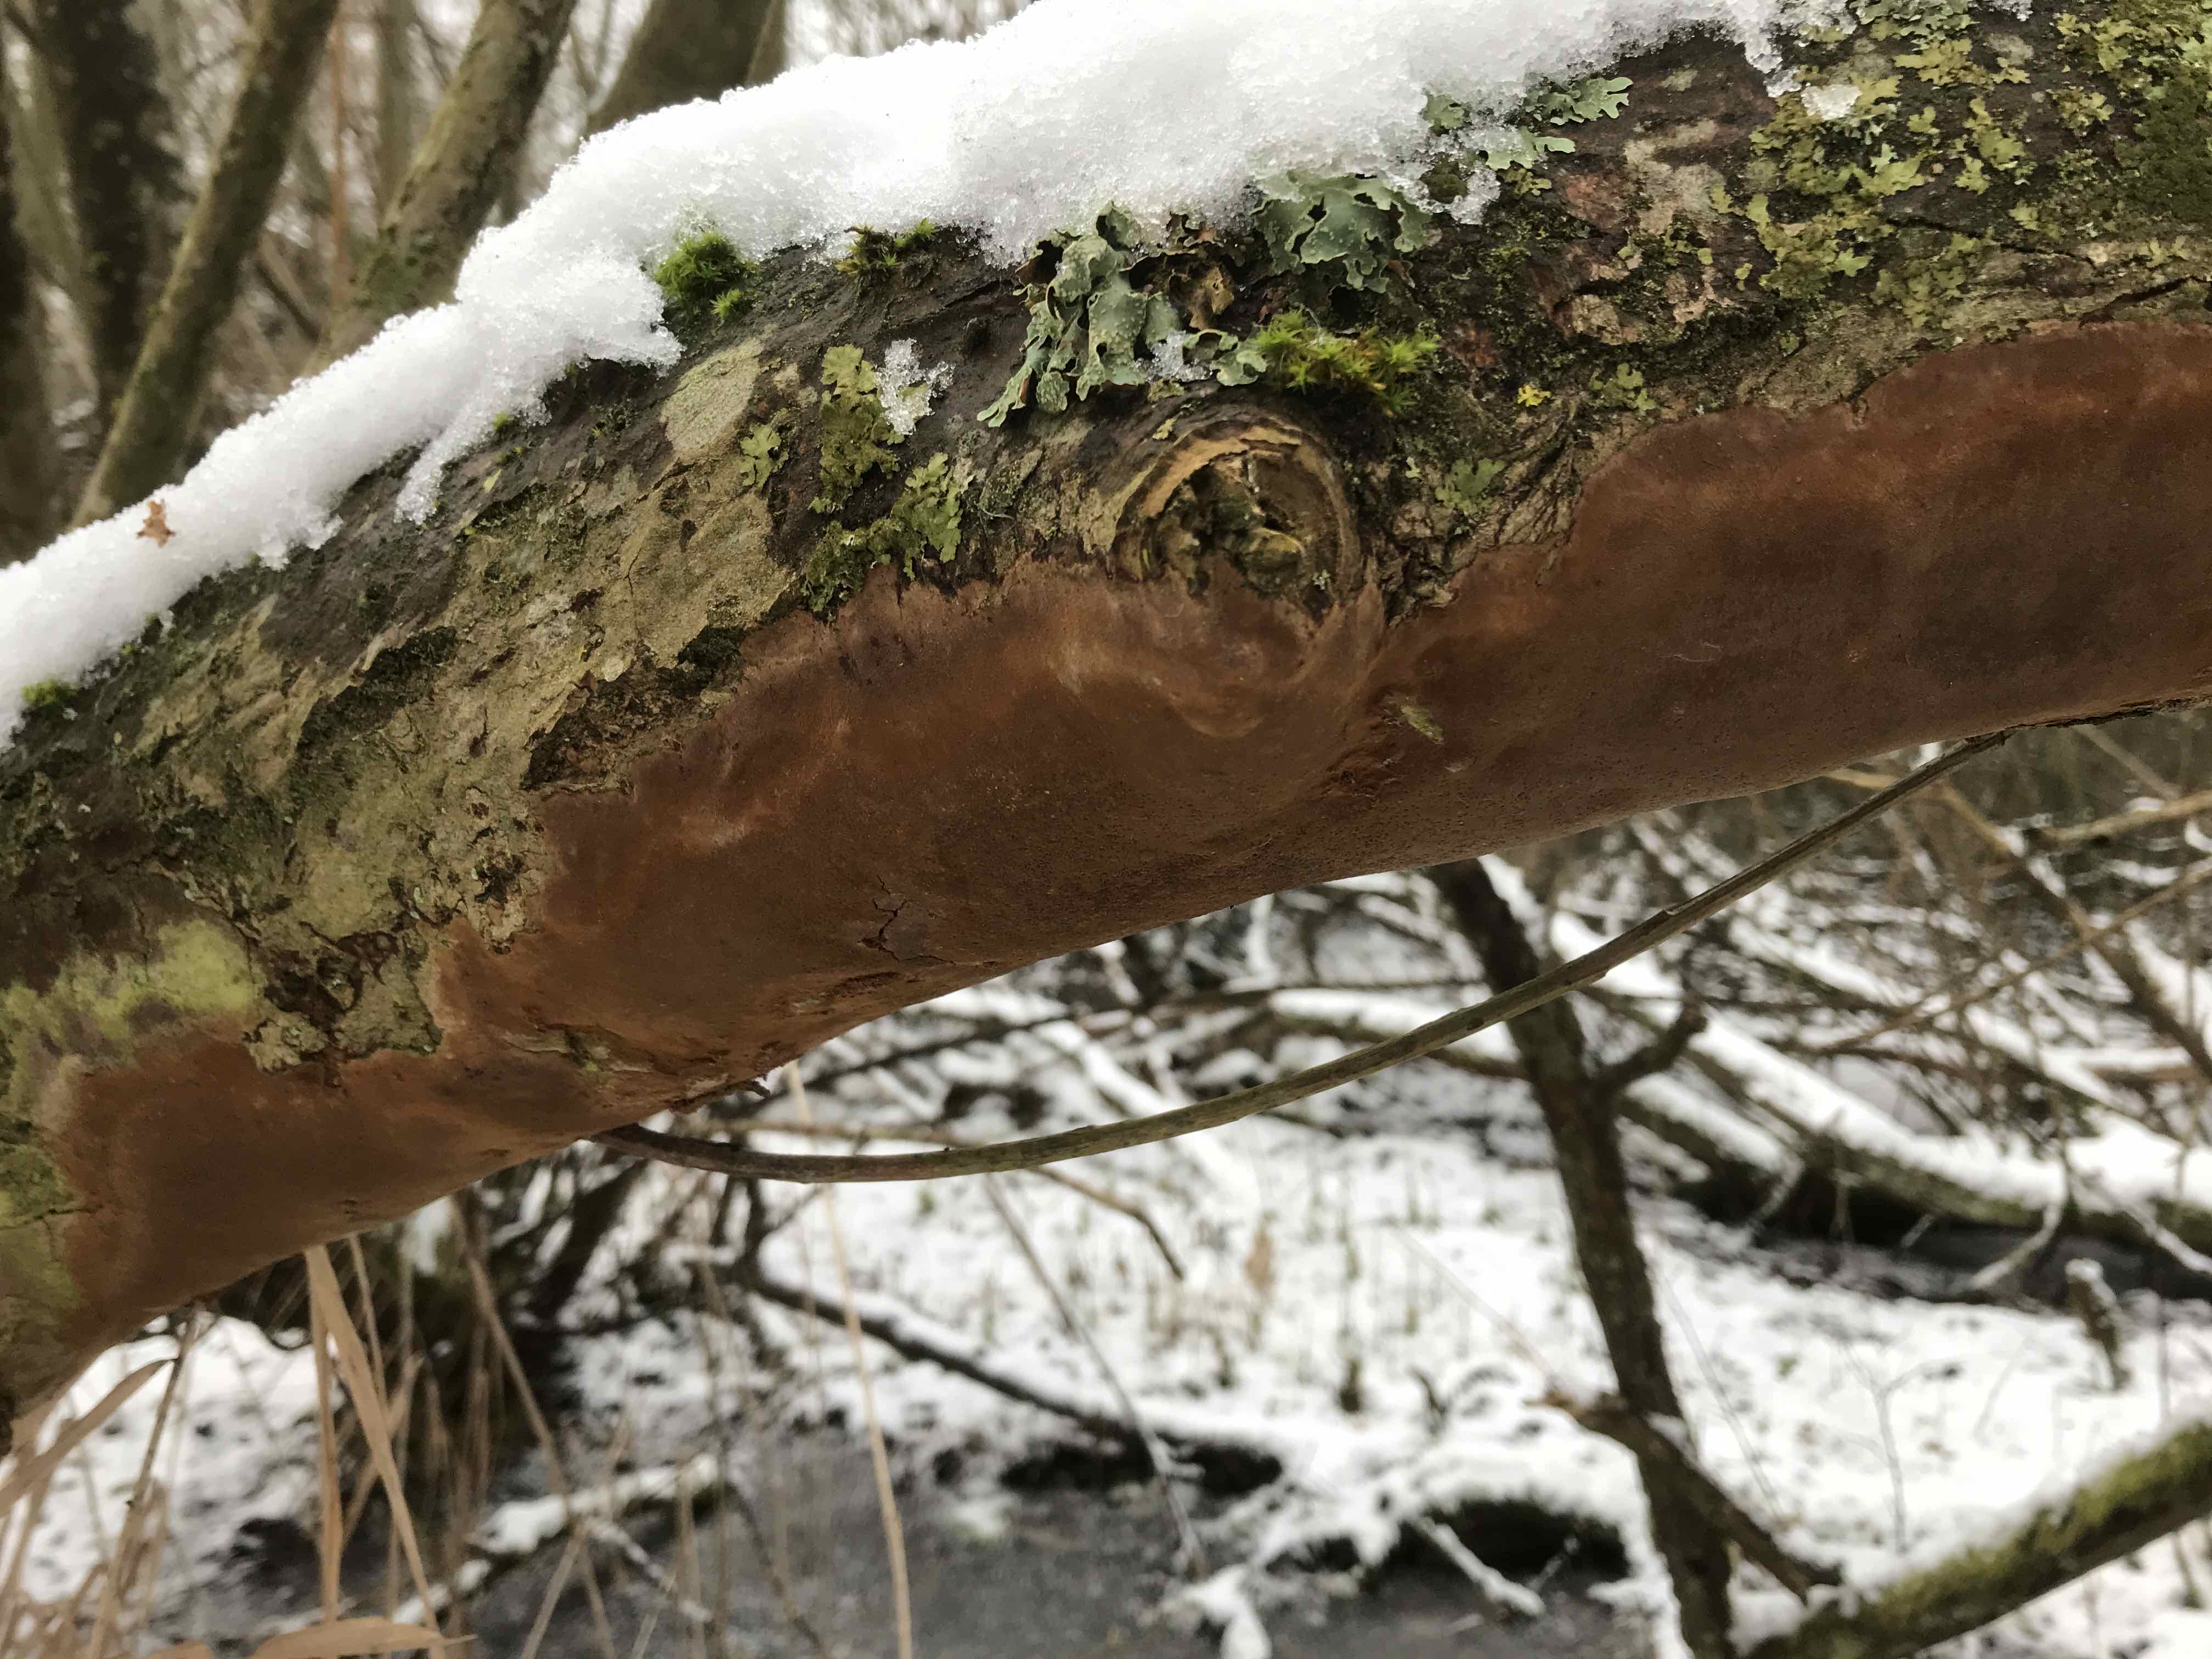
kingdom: Fungi
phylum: Basidiomycota
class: Agaricomycetes
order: Hymenochaetales
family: Hymenochaetaceae
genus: Fomitiporia
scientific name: Fomitiporia punctata
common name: pude-ildporesvamp
